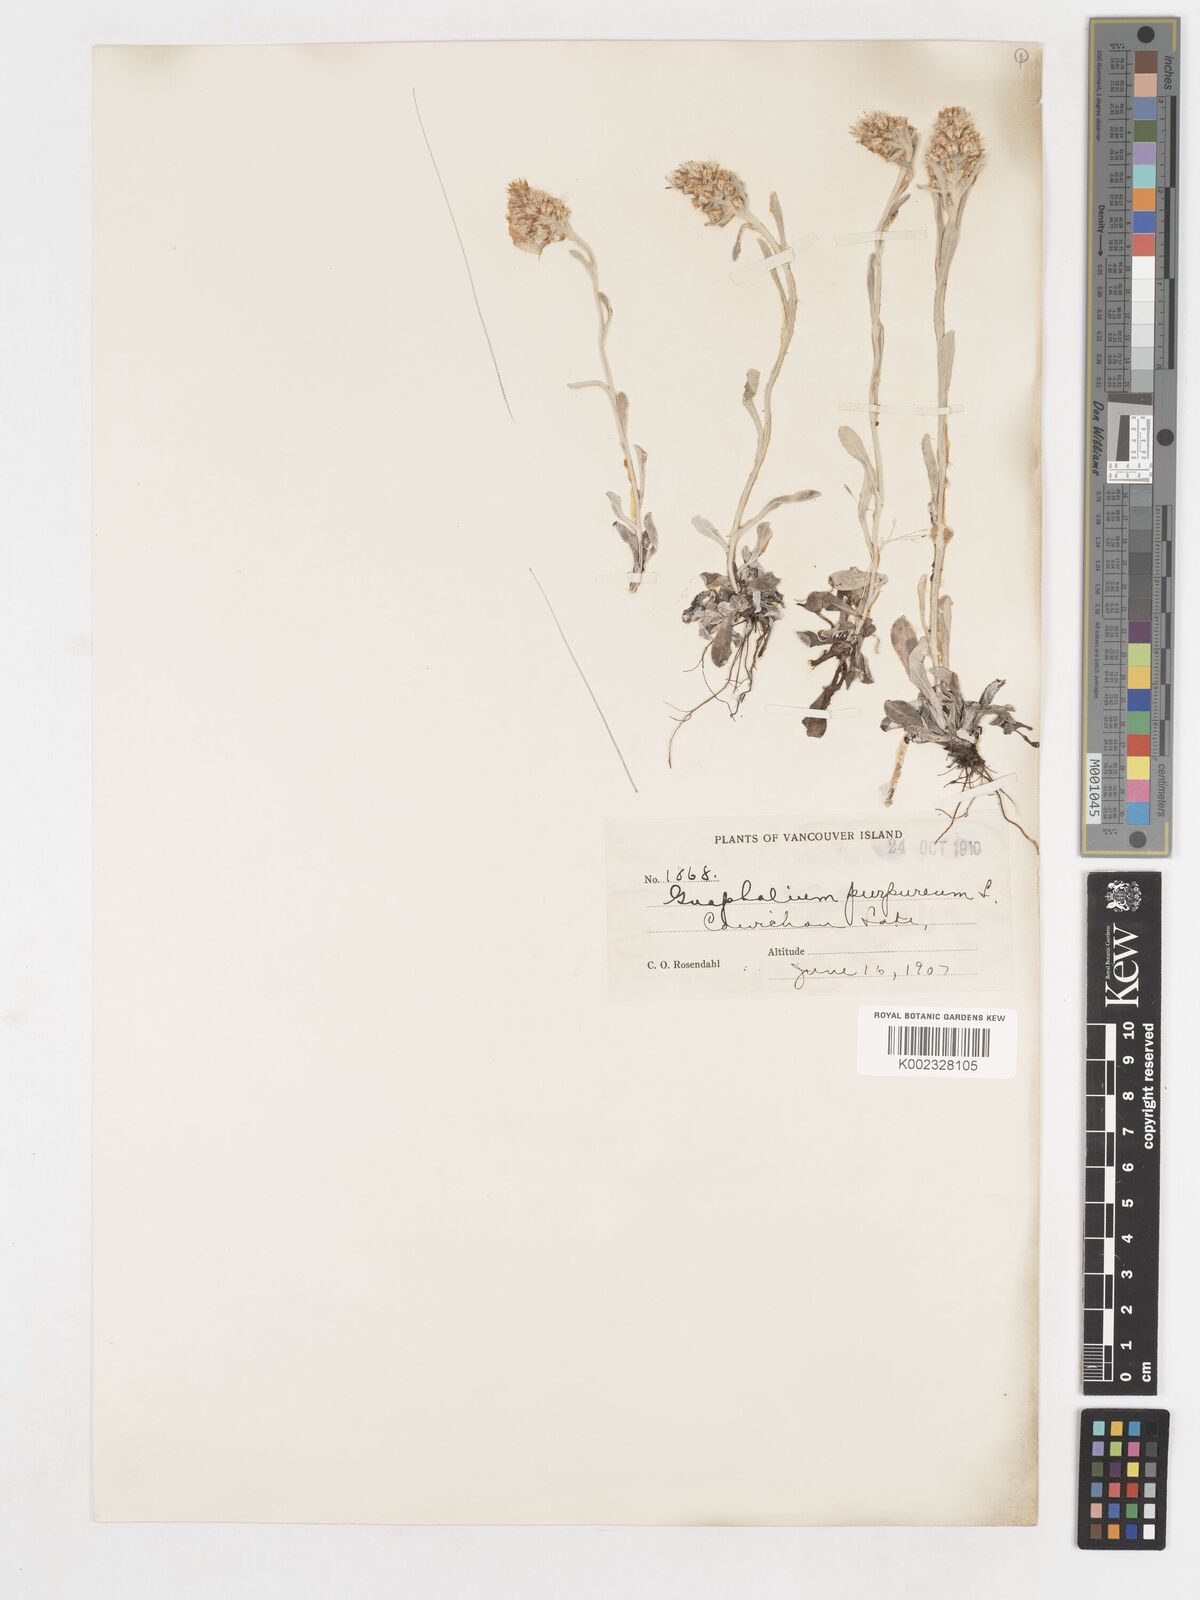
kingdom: Plantae
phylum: Tracheophyta
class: Magnoliopsida
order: Asterales
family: Asteraceae
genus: Gamochaeta
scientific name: Gamochaeta purpurea
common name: Purple cudweed
